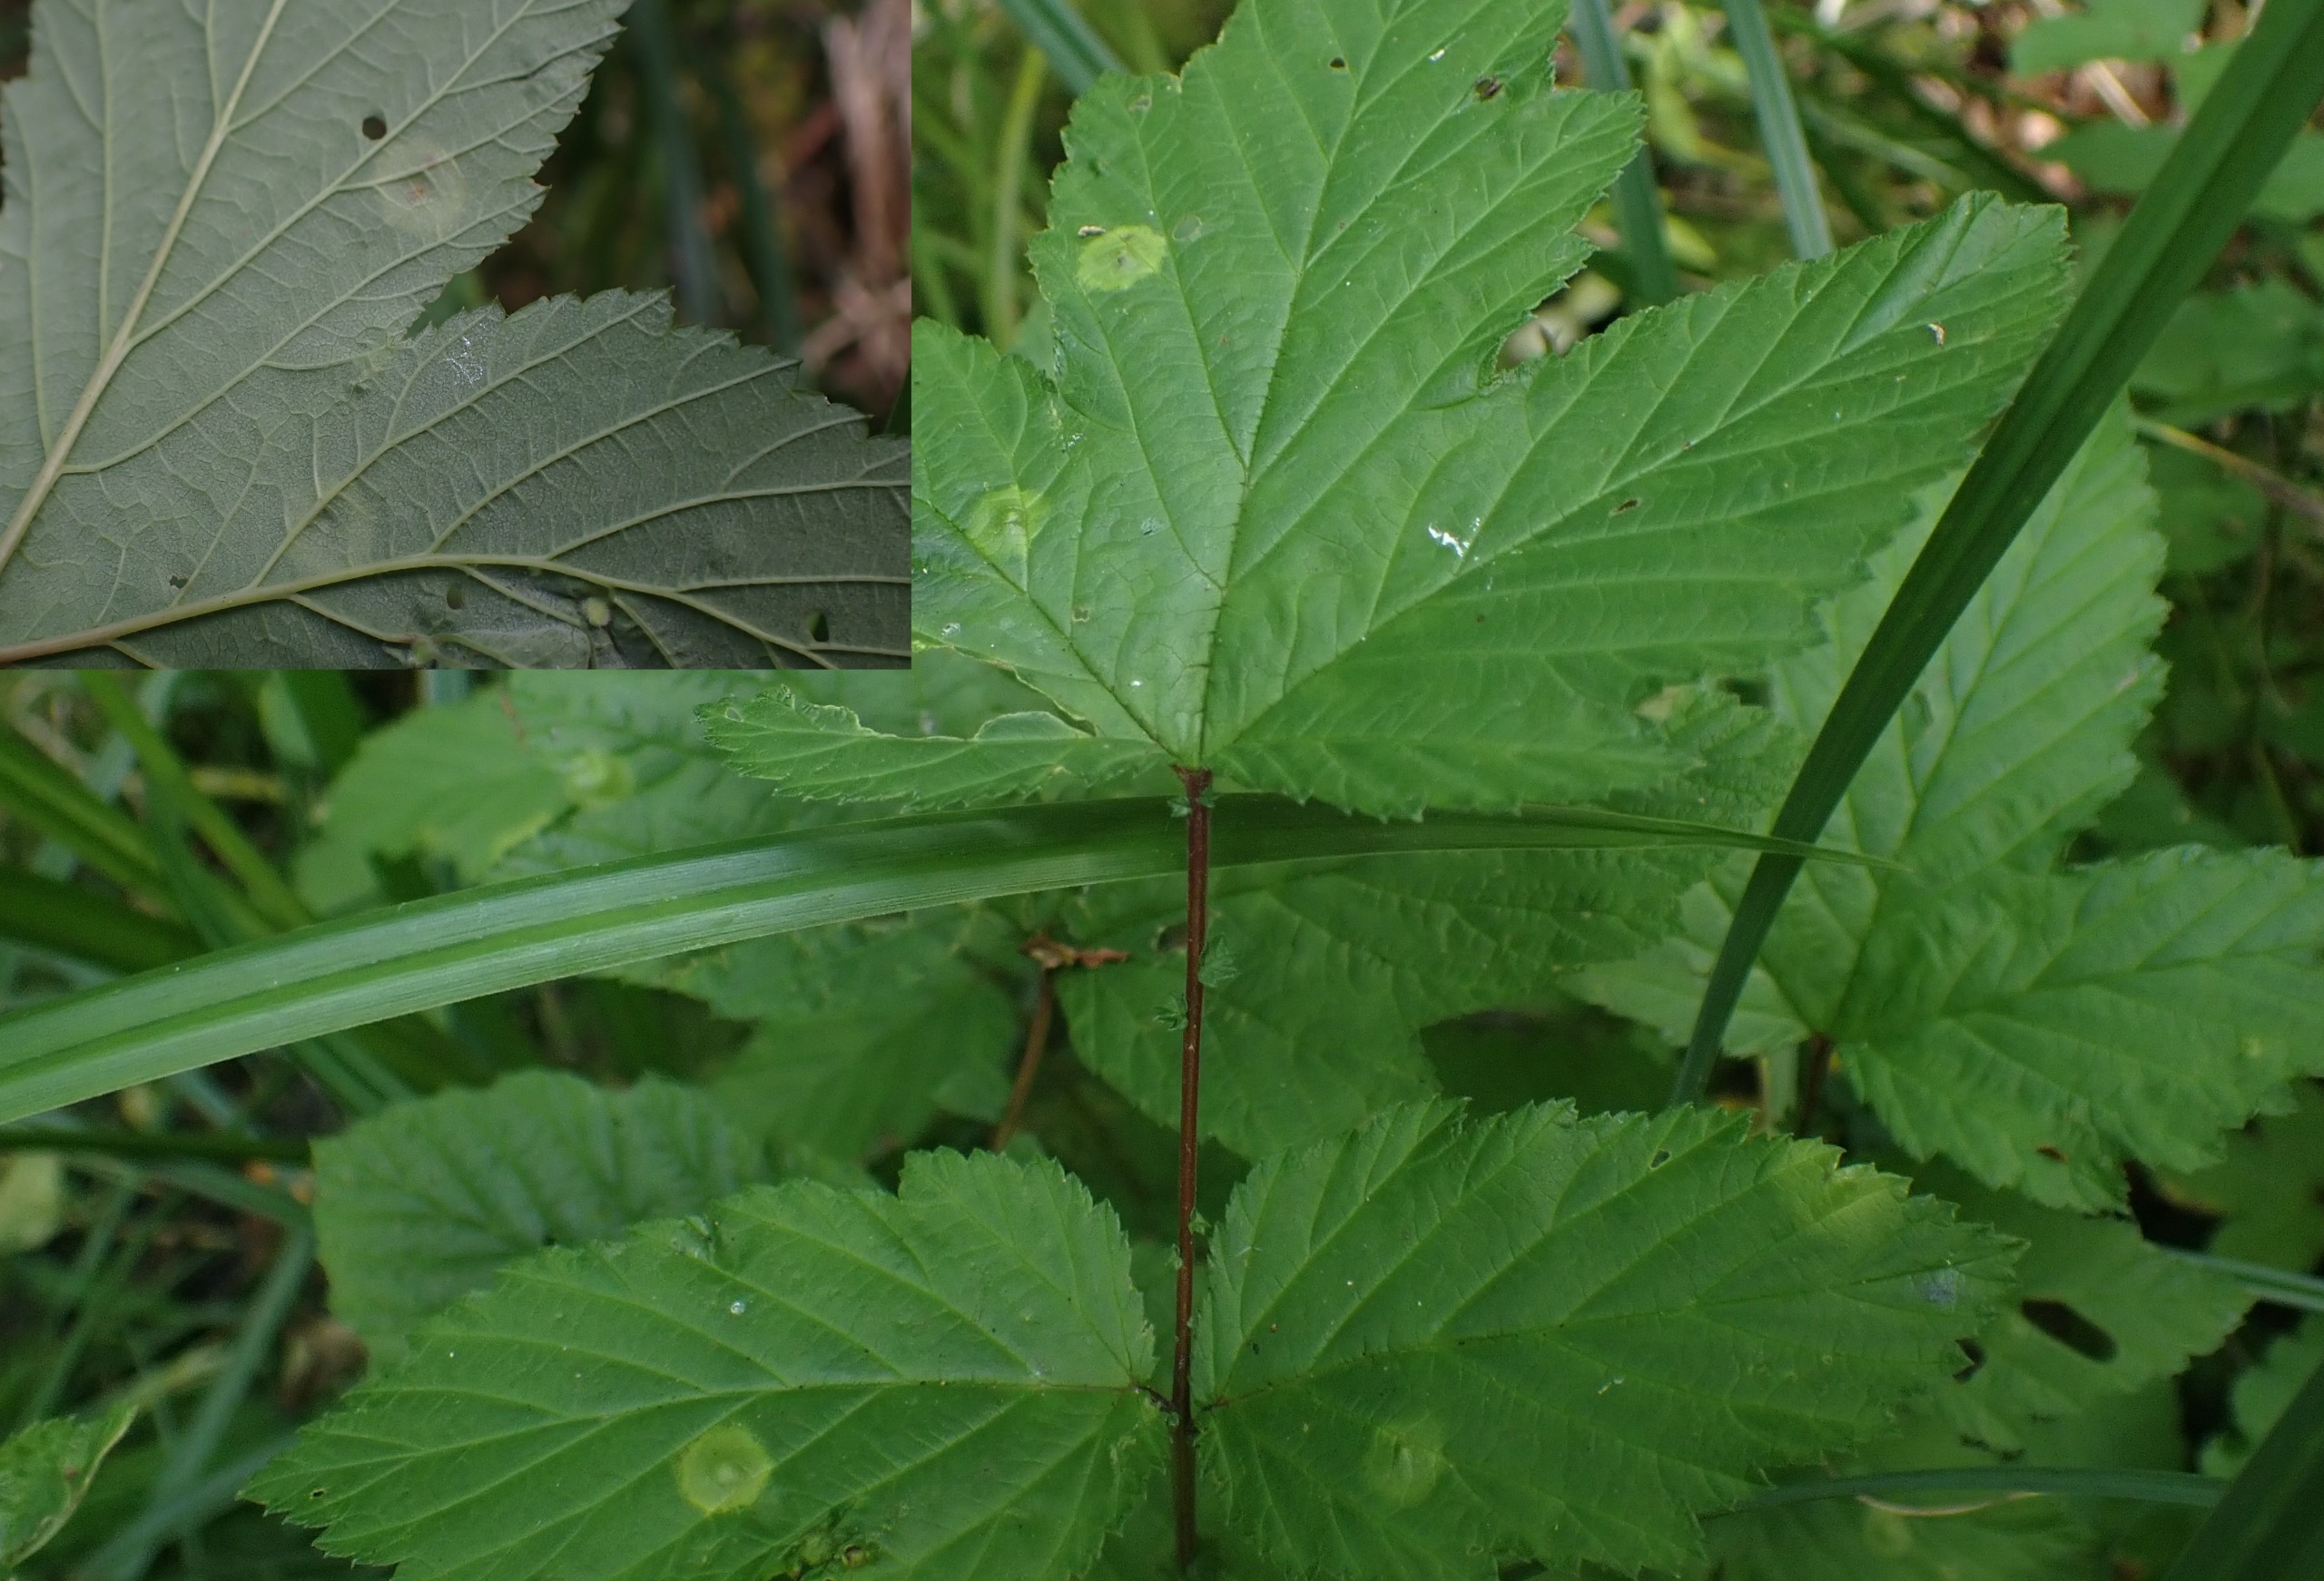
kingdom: Animalia
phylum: Arthropoda
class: Insecta
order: Diptera
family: Cecidomyiidae
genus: Dasineura
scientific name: Dasineura pustulans
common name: Mjødurtblistgalmyg
